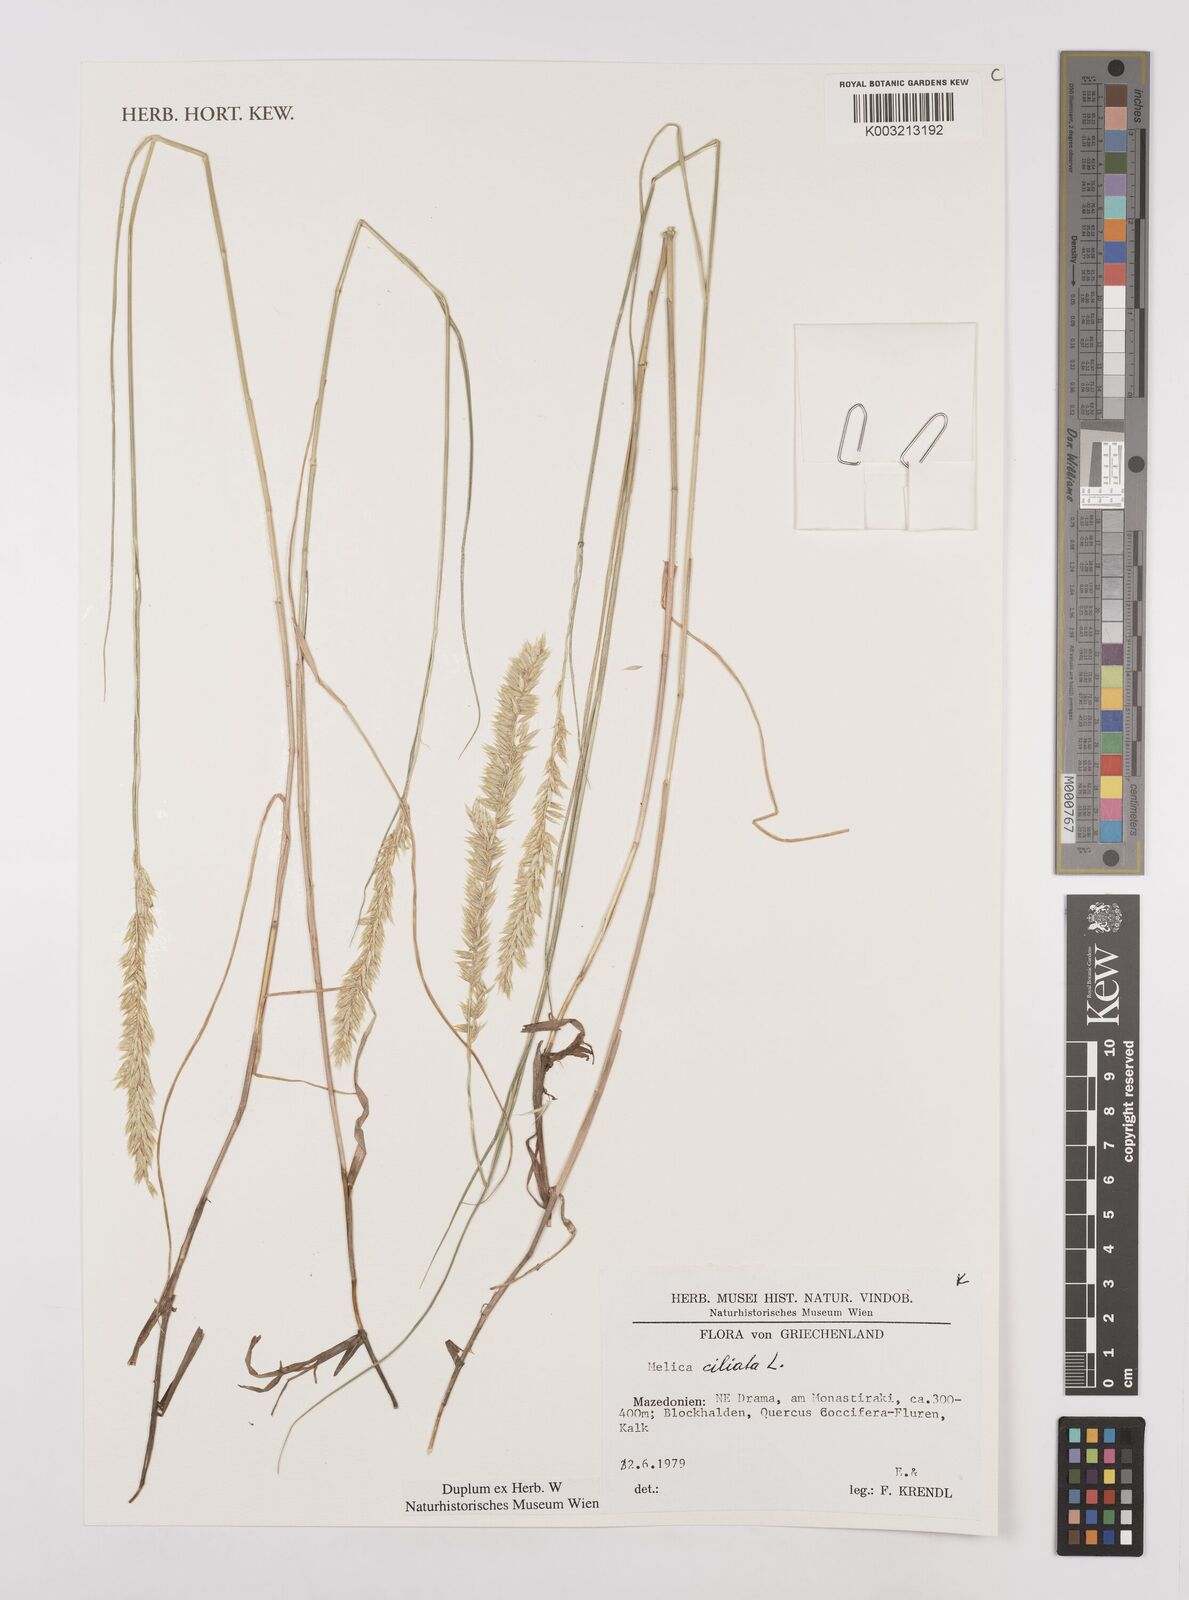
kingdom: Plantae
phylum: Tracheophyta
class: Liliopsida
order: Poales
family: Poaceae
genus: Melica
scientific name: Melica ciliata
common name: Hairy melicgrass
